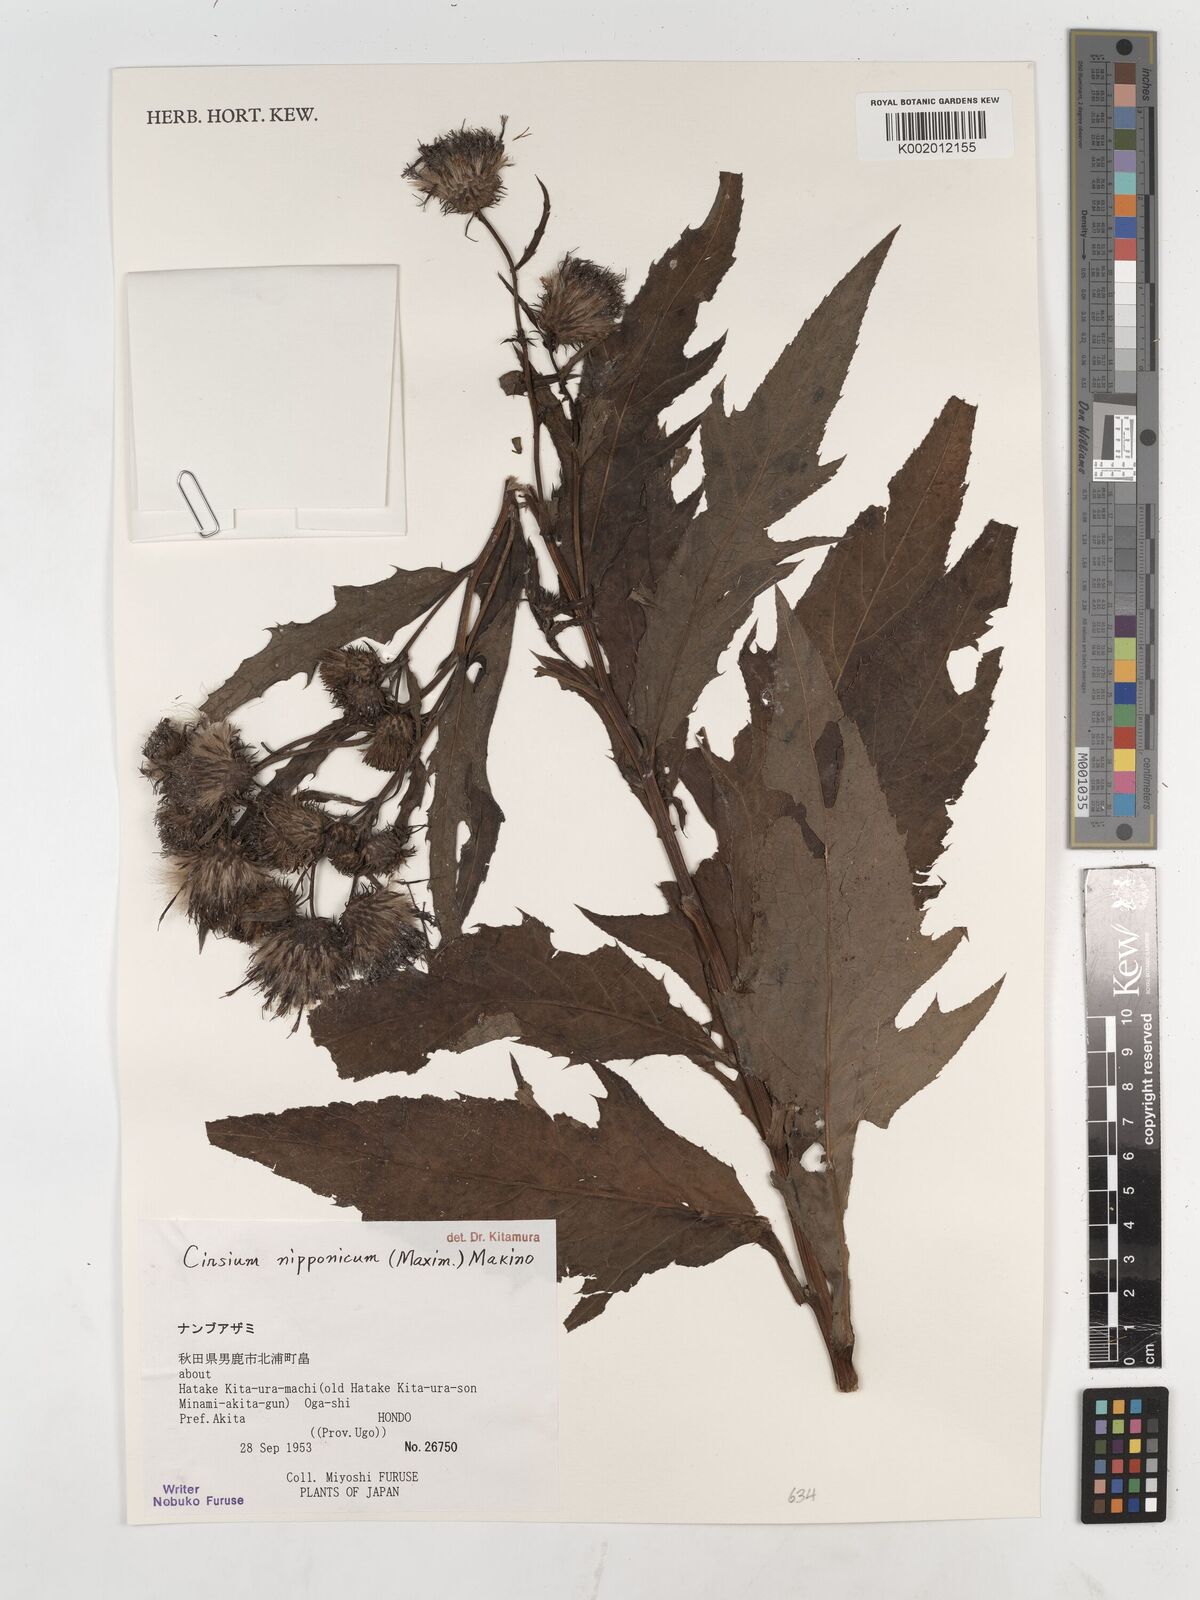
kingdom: Plantae
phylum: Tracheophyta
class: Magnoliopsida
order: Asterales
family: Asteraceae
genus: Cirsium
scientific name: Cirsium nippoense
